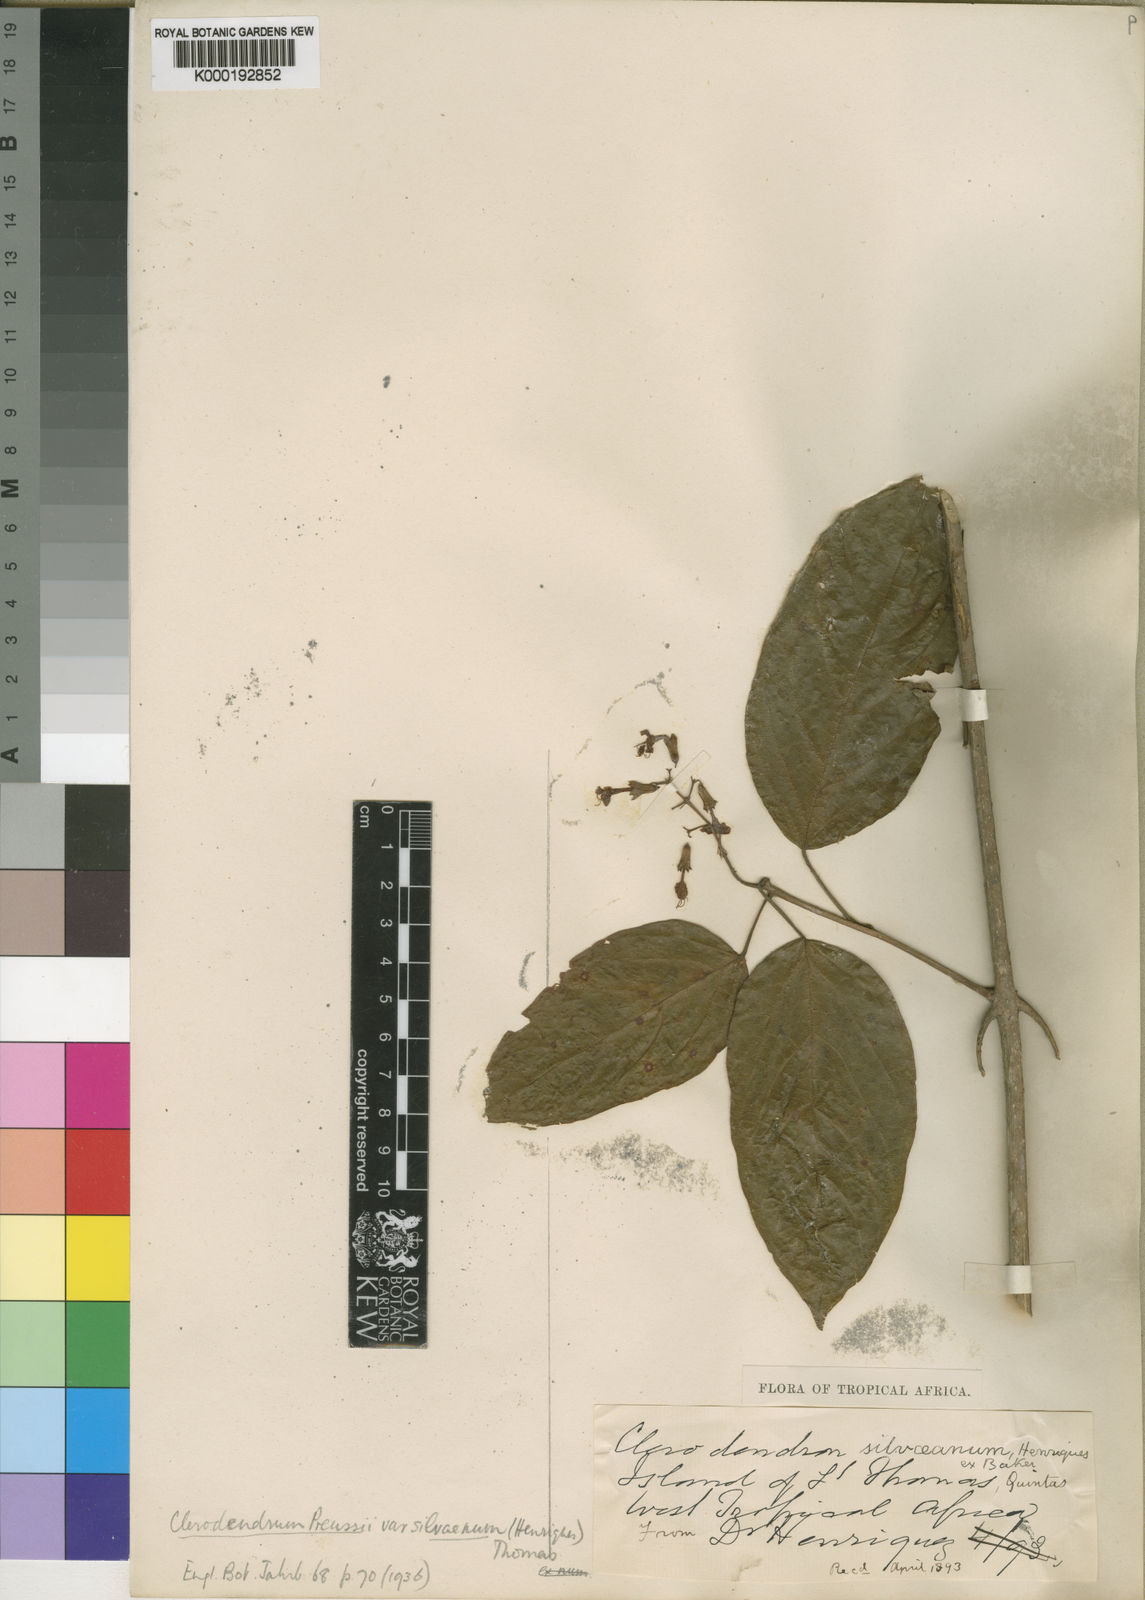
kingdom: Plantae
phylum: Tracheophyta
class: Magnoliopsida
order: Lamiales
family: Lamiaceae
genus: Clerodendrum
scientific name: Clerodendrum
